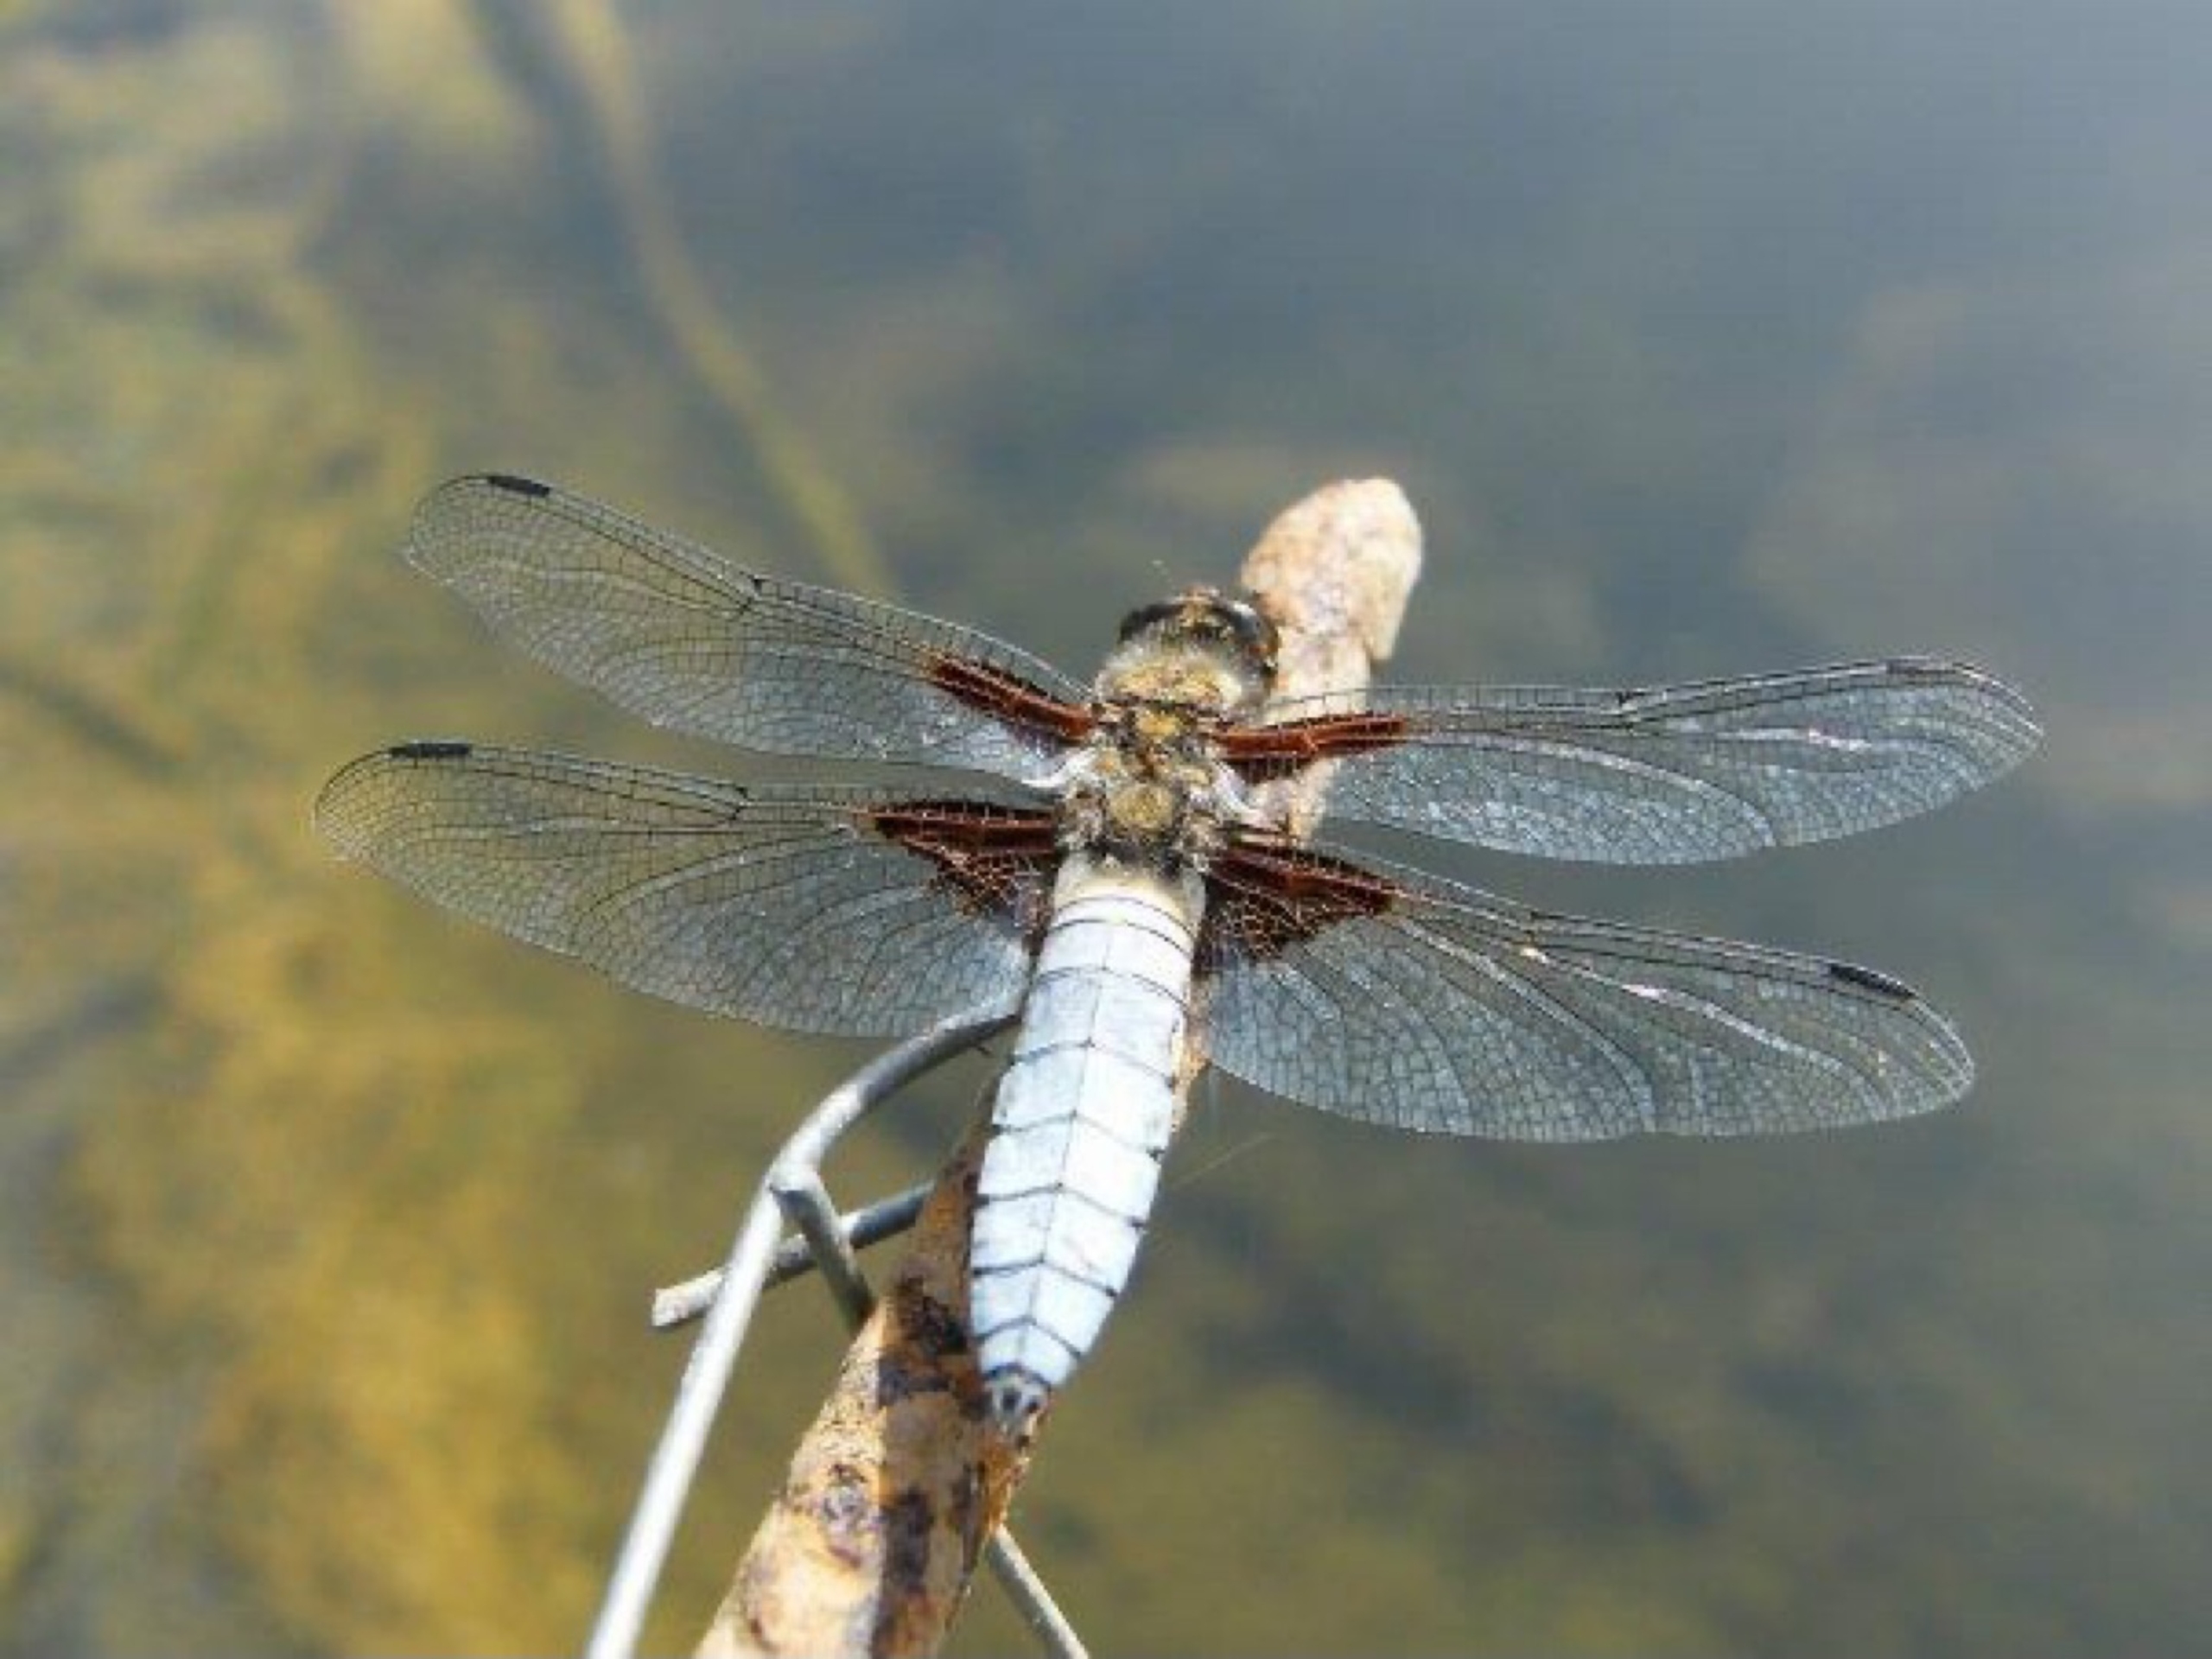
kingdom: Animalia
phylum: Arthropoda
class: Insecta
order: Odonata
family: Libellulidae
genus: Libellula
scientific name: Libellula depressa
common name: Blå libel
